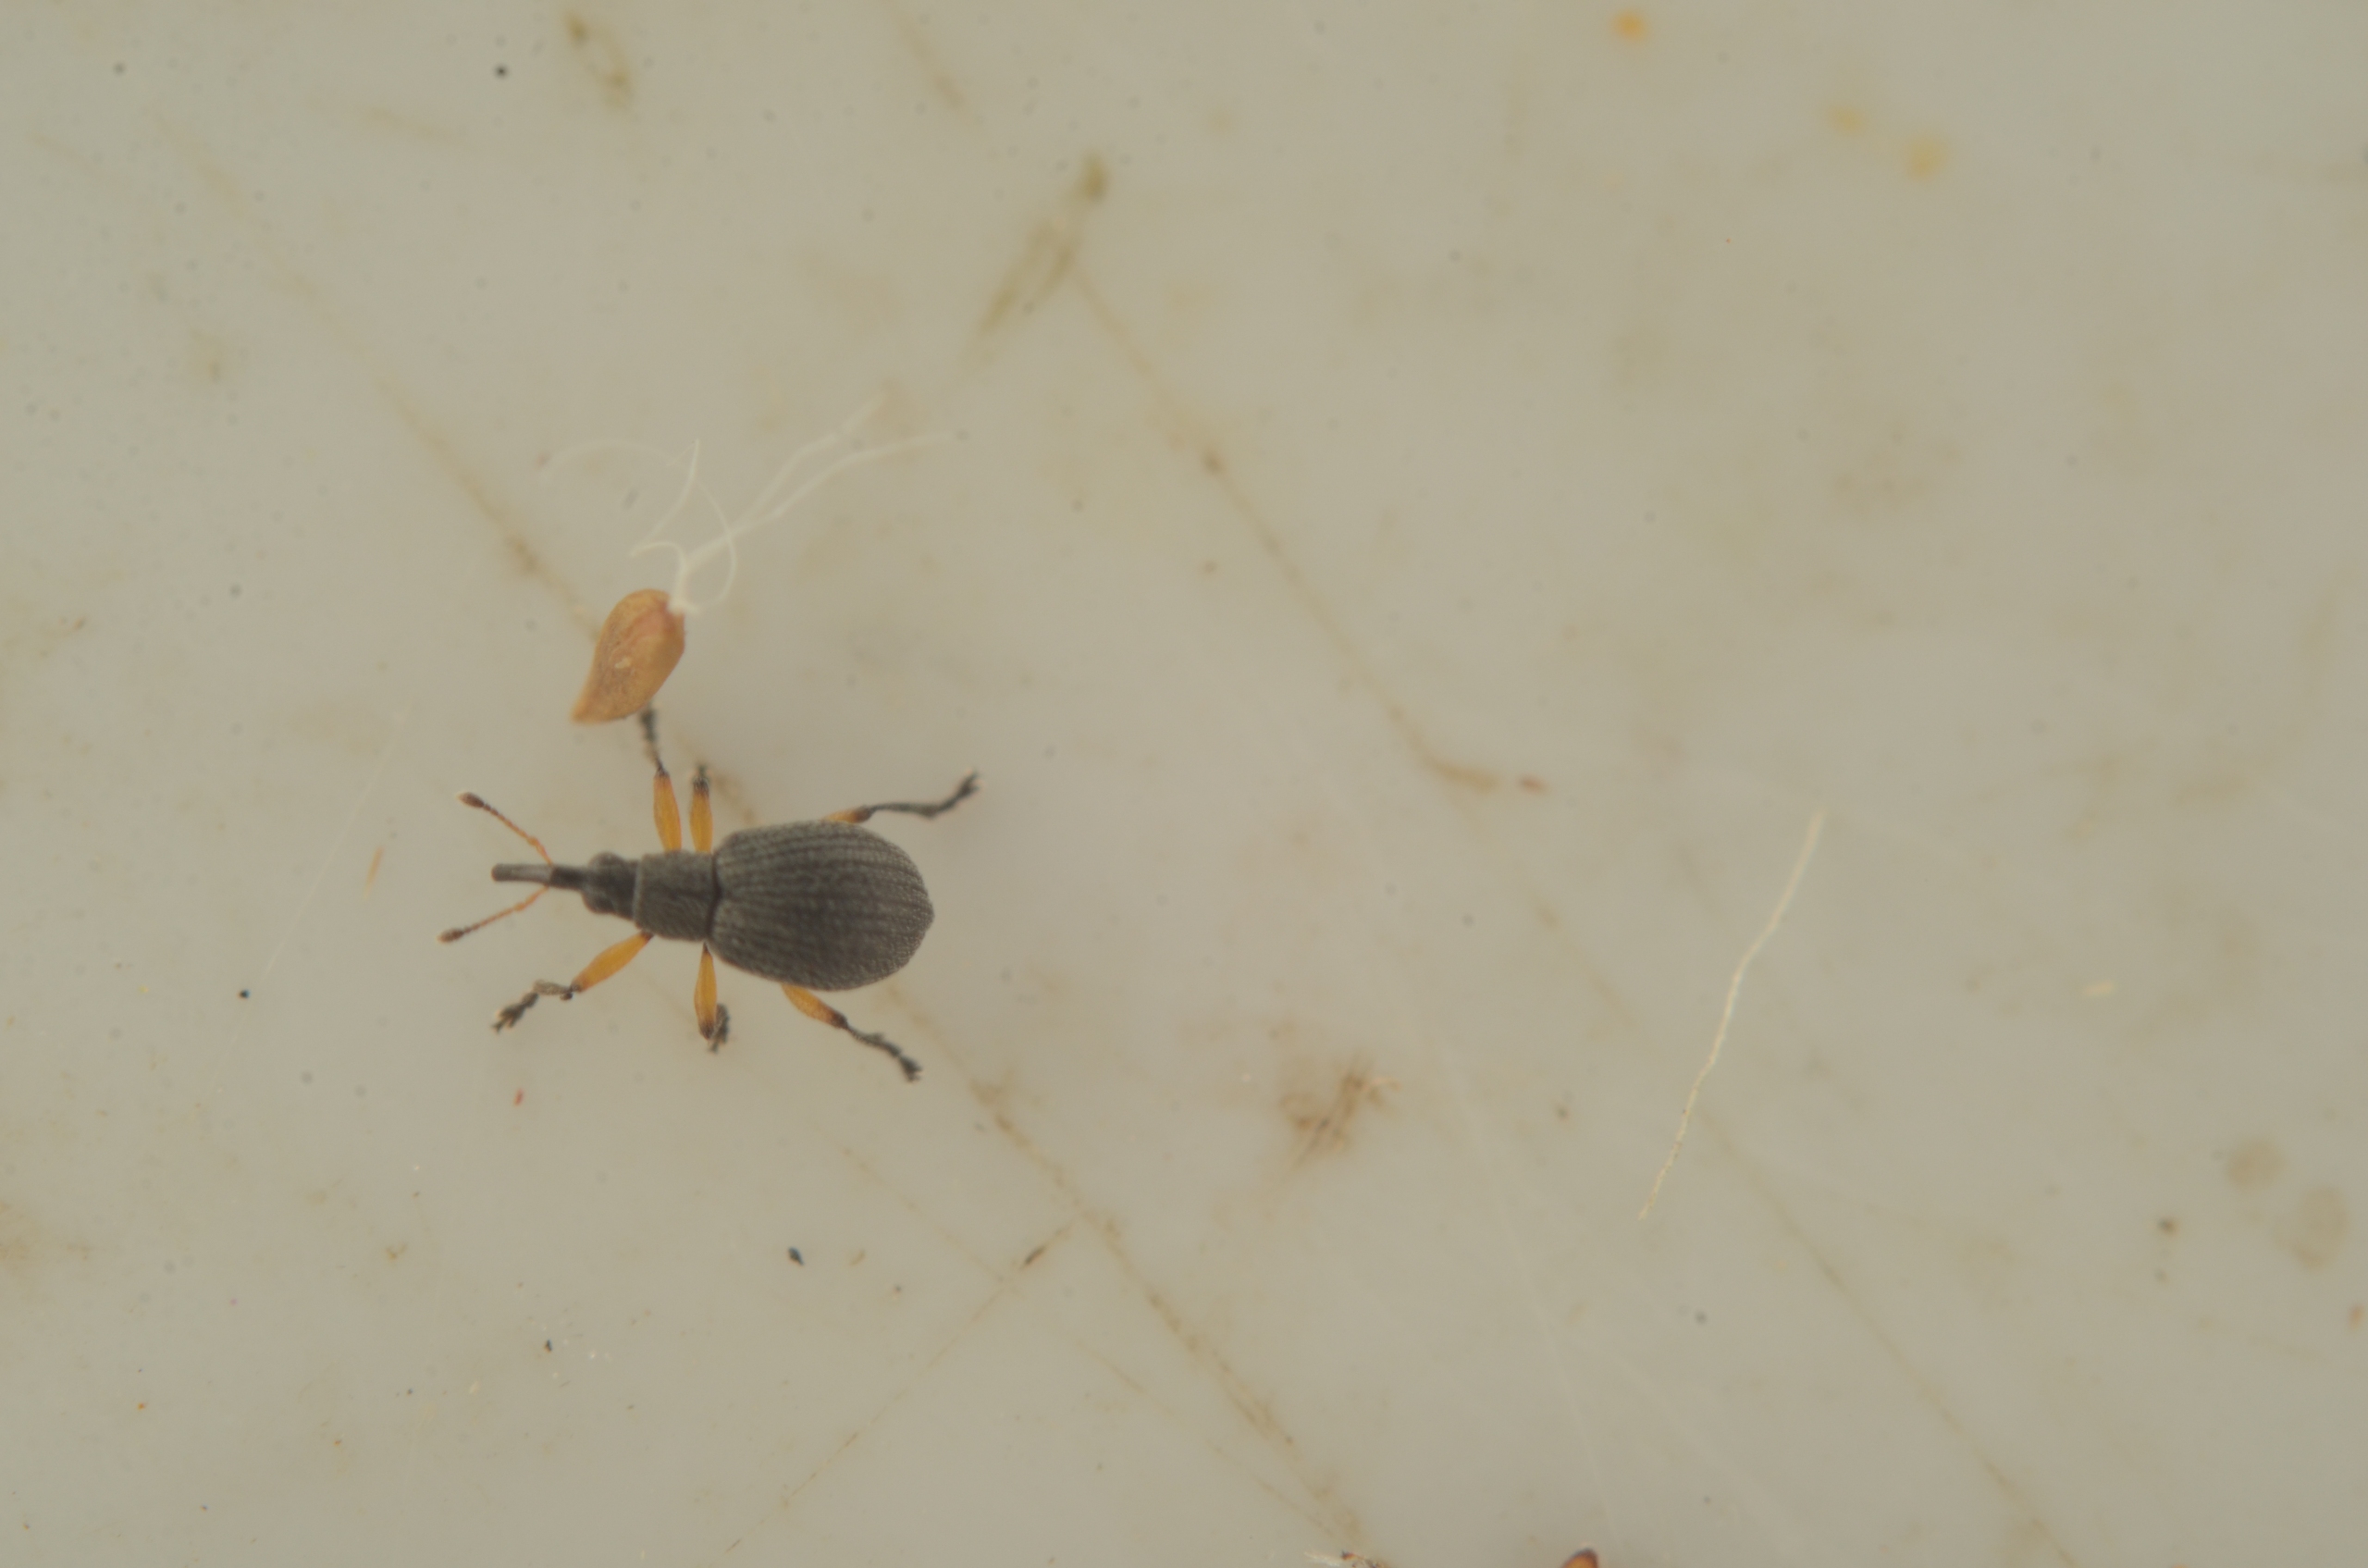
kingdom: Animalia
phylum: Arthropoda
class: Insecta
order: Coleoptera
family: Brentidae
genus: Eutrichapion
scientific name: Eutrichapion viciae
